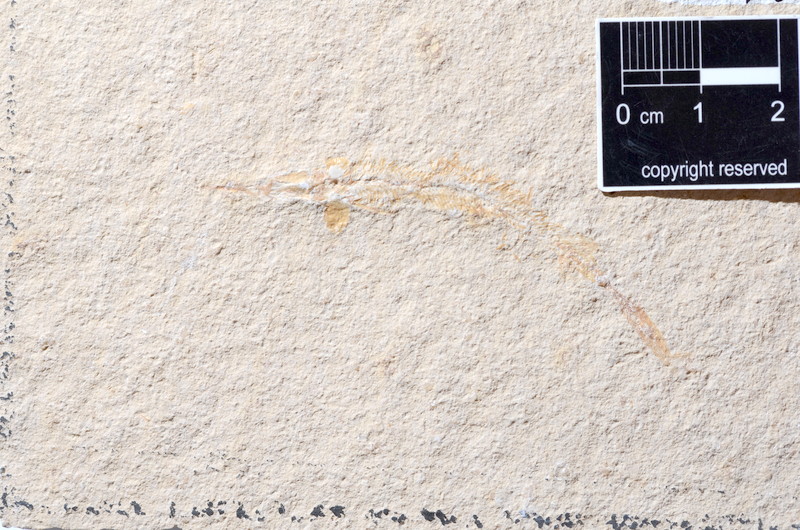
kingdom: Animalia
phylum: Chordata
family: Aspidorhynchidae
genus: Aspidorhynchus
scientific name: Aspidorhynchus acutirostris
